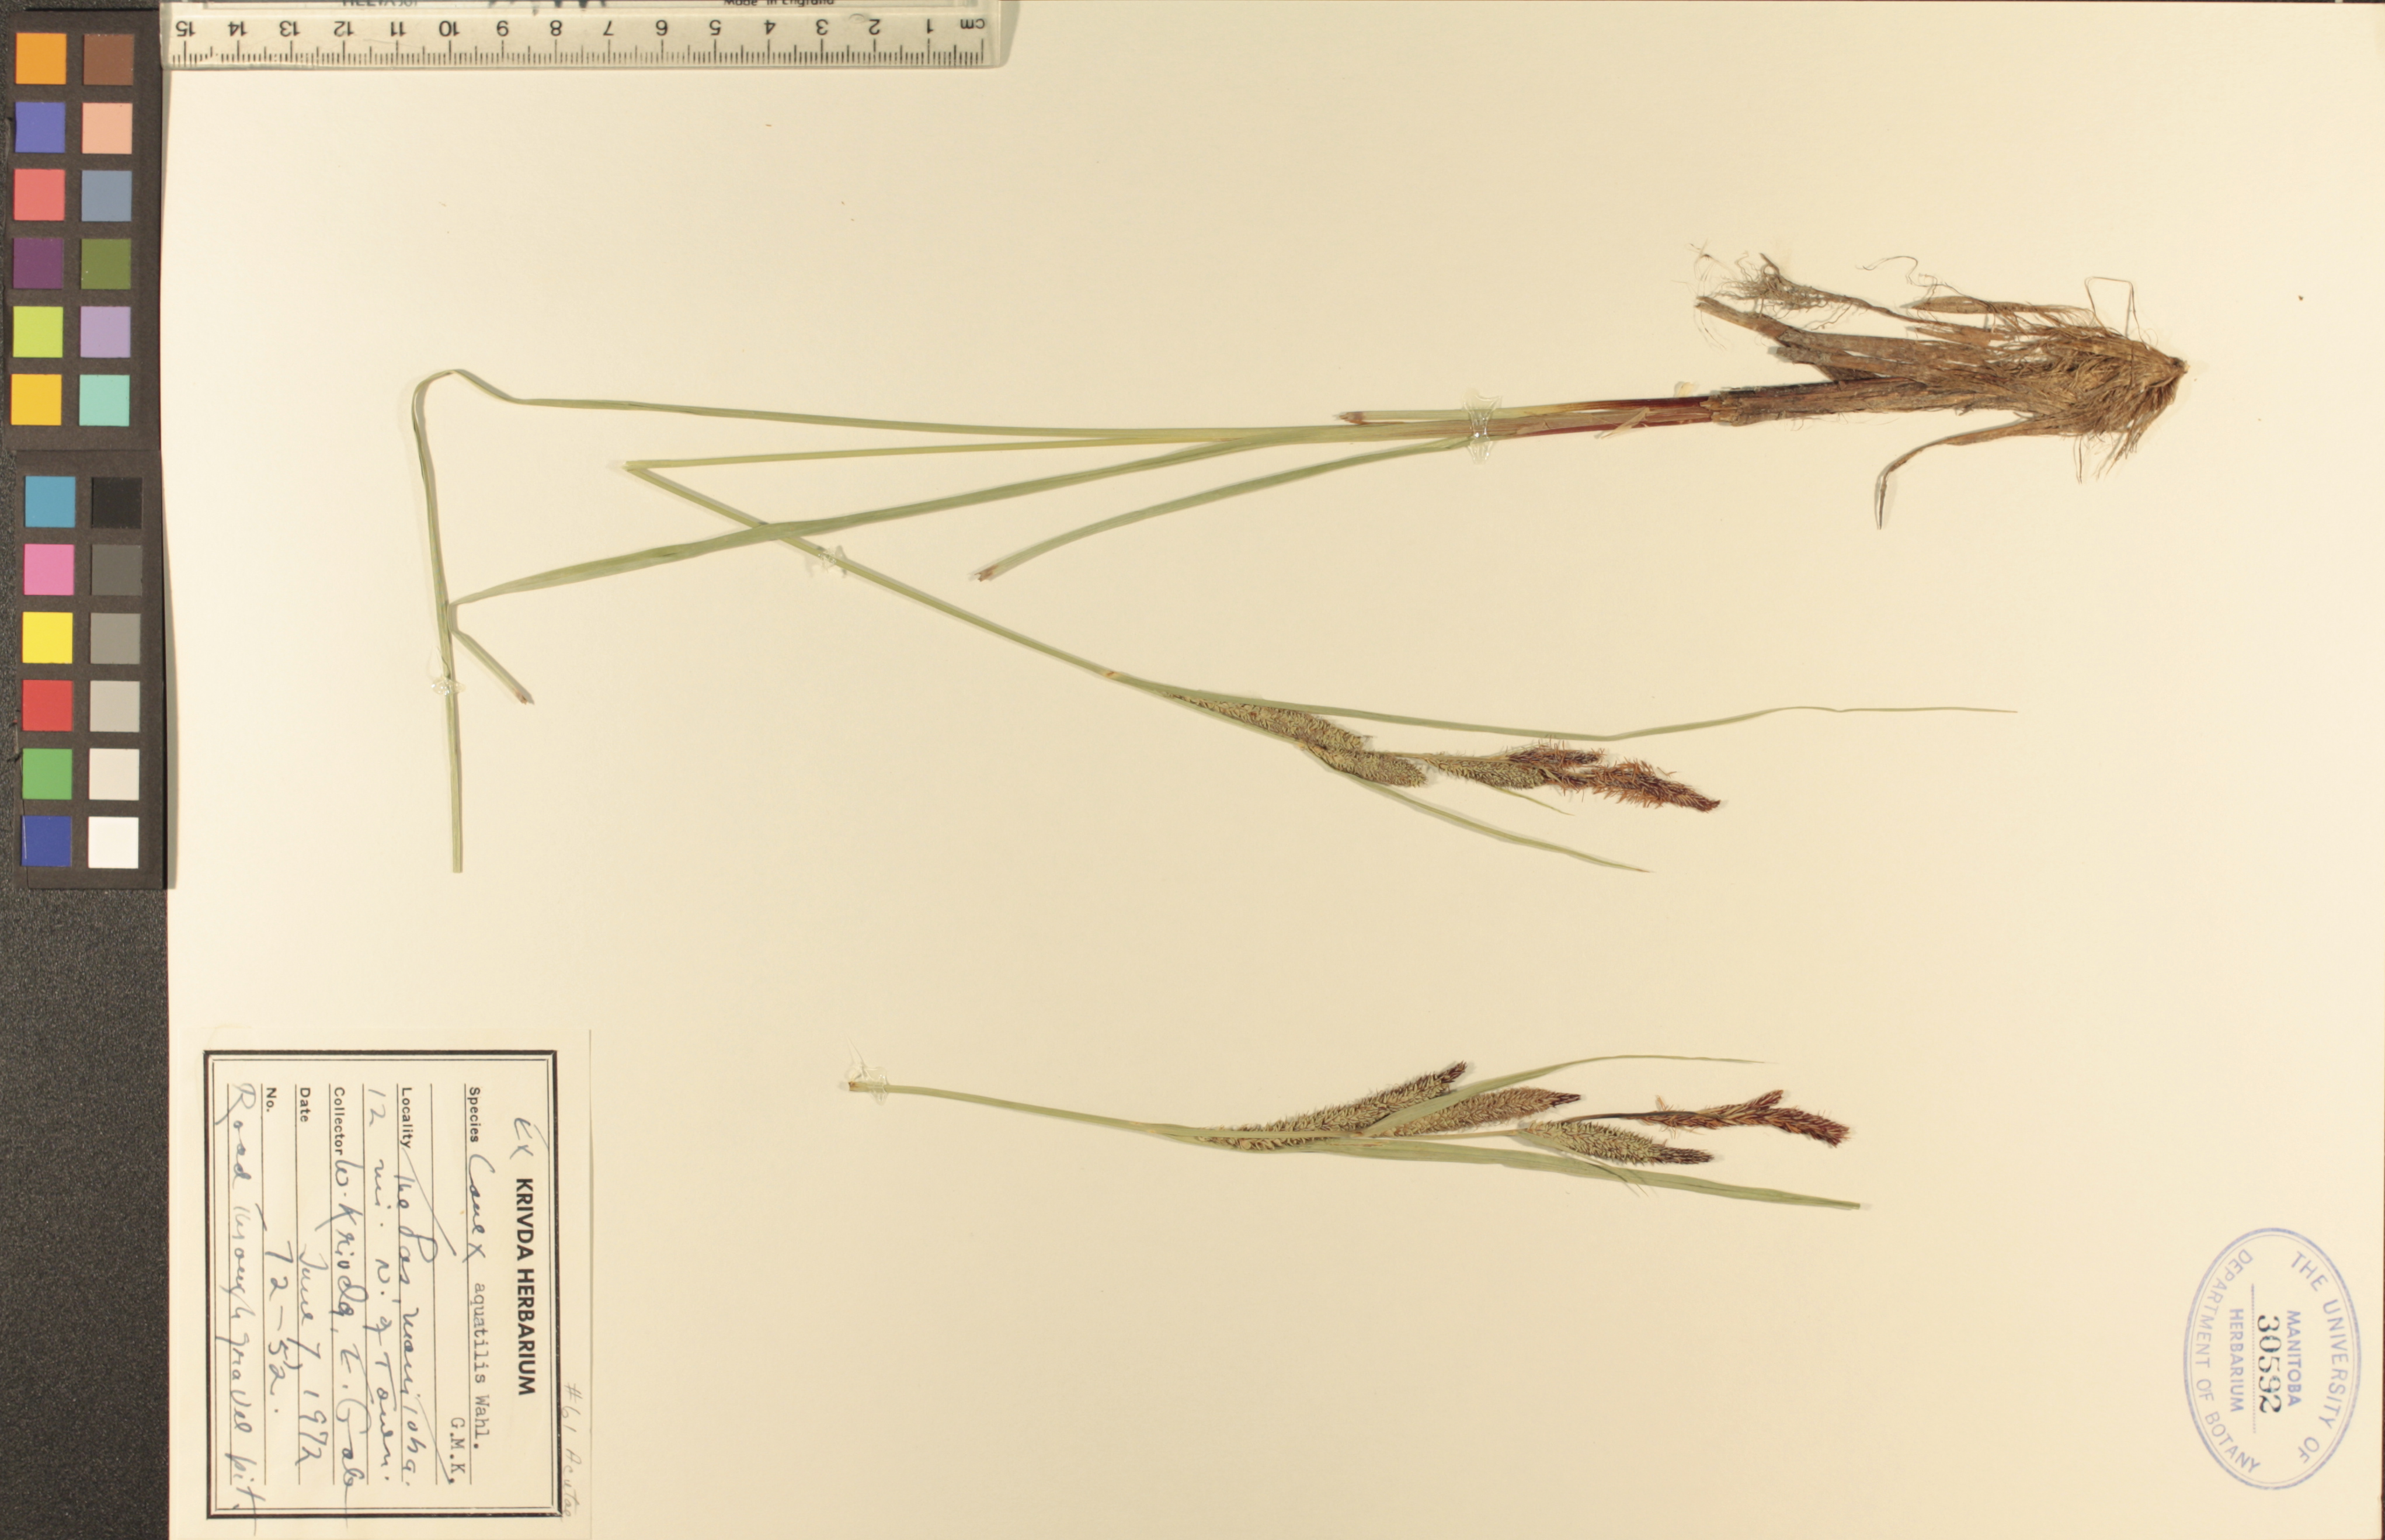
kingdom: Plantae
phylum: Tracheophyta
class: Liliopsida
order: Poales
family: Cyperaceae
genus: Carex
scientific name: Carex aquatilis
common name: Water sedge
